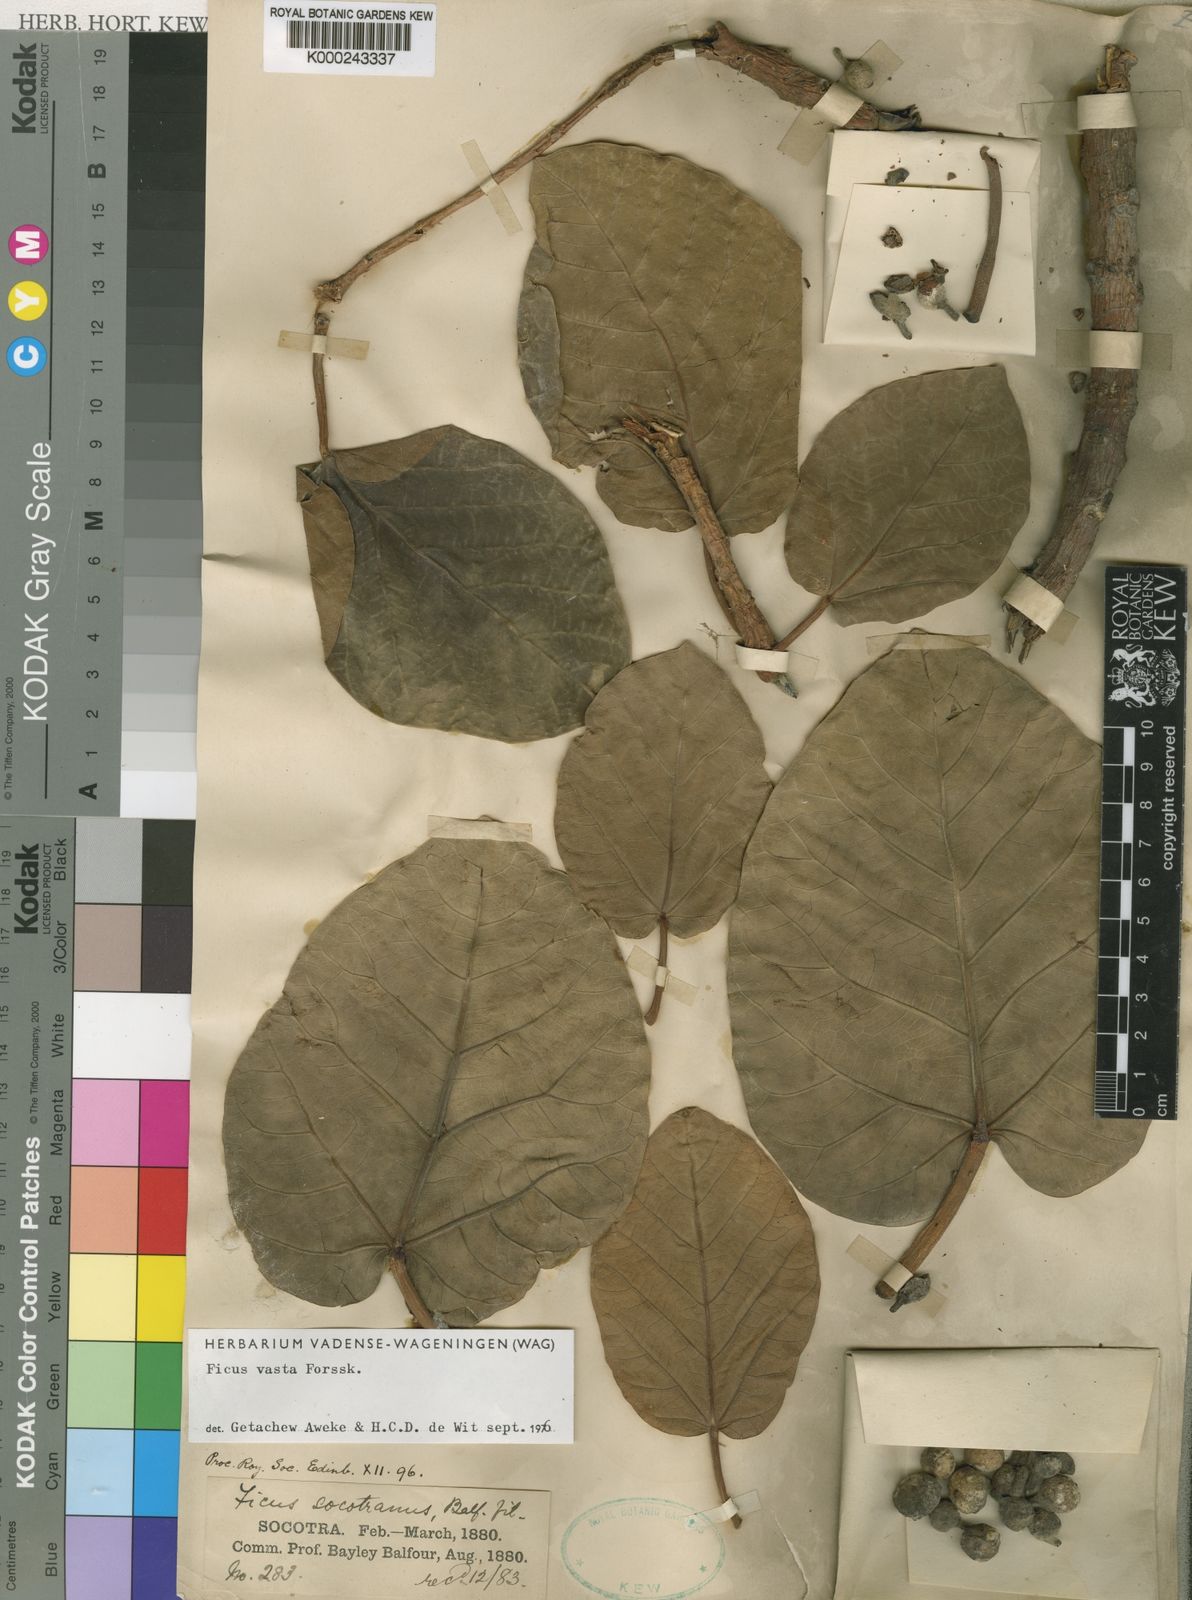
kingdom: Plantae
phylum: Tracheophyta
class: Magnoliopsida
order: Rosales
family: Moraceae
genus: Ficus
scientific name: Ficus vasta
